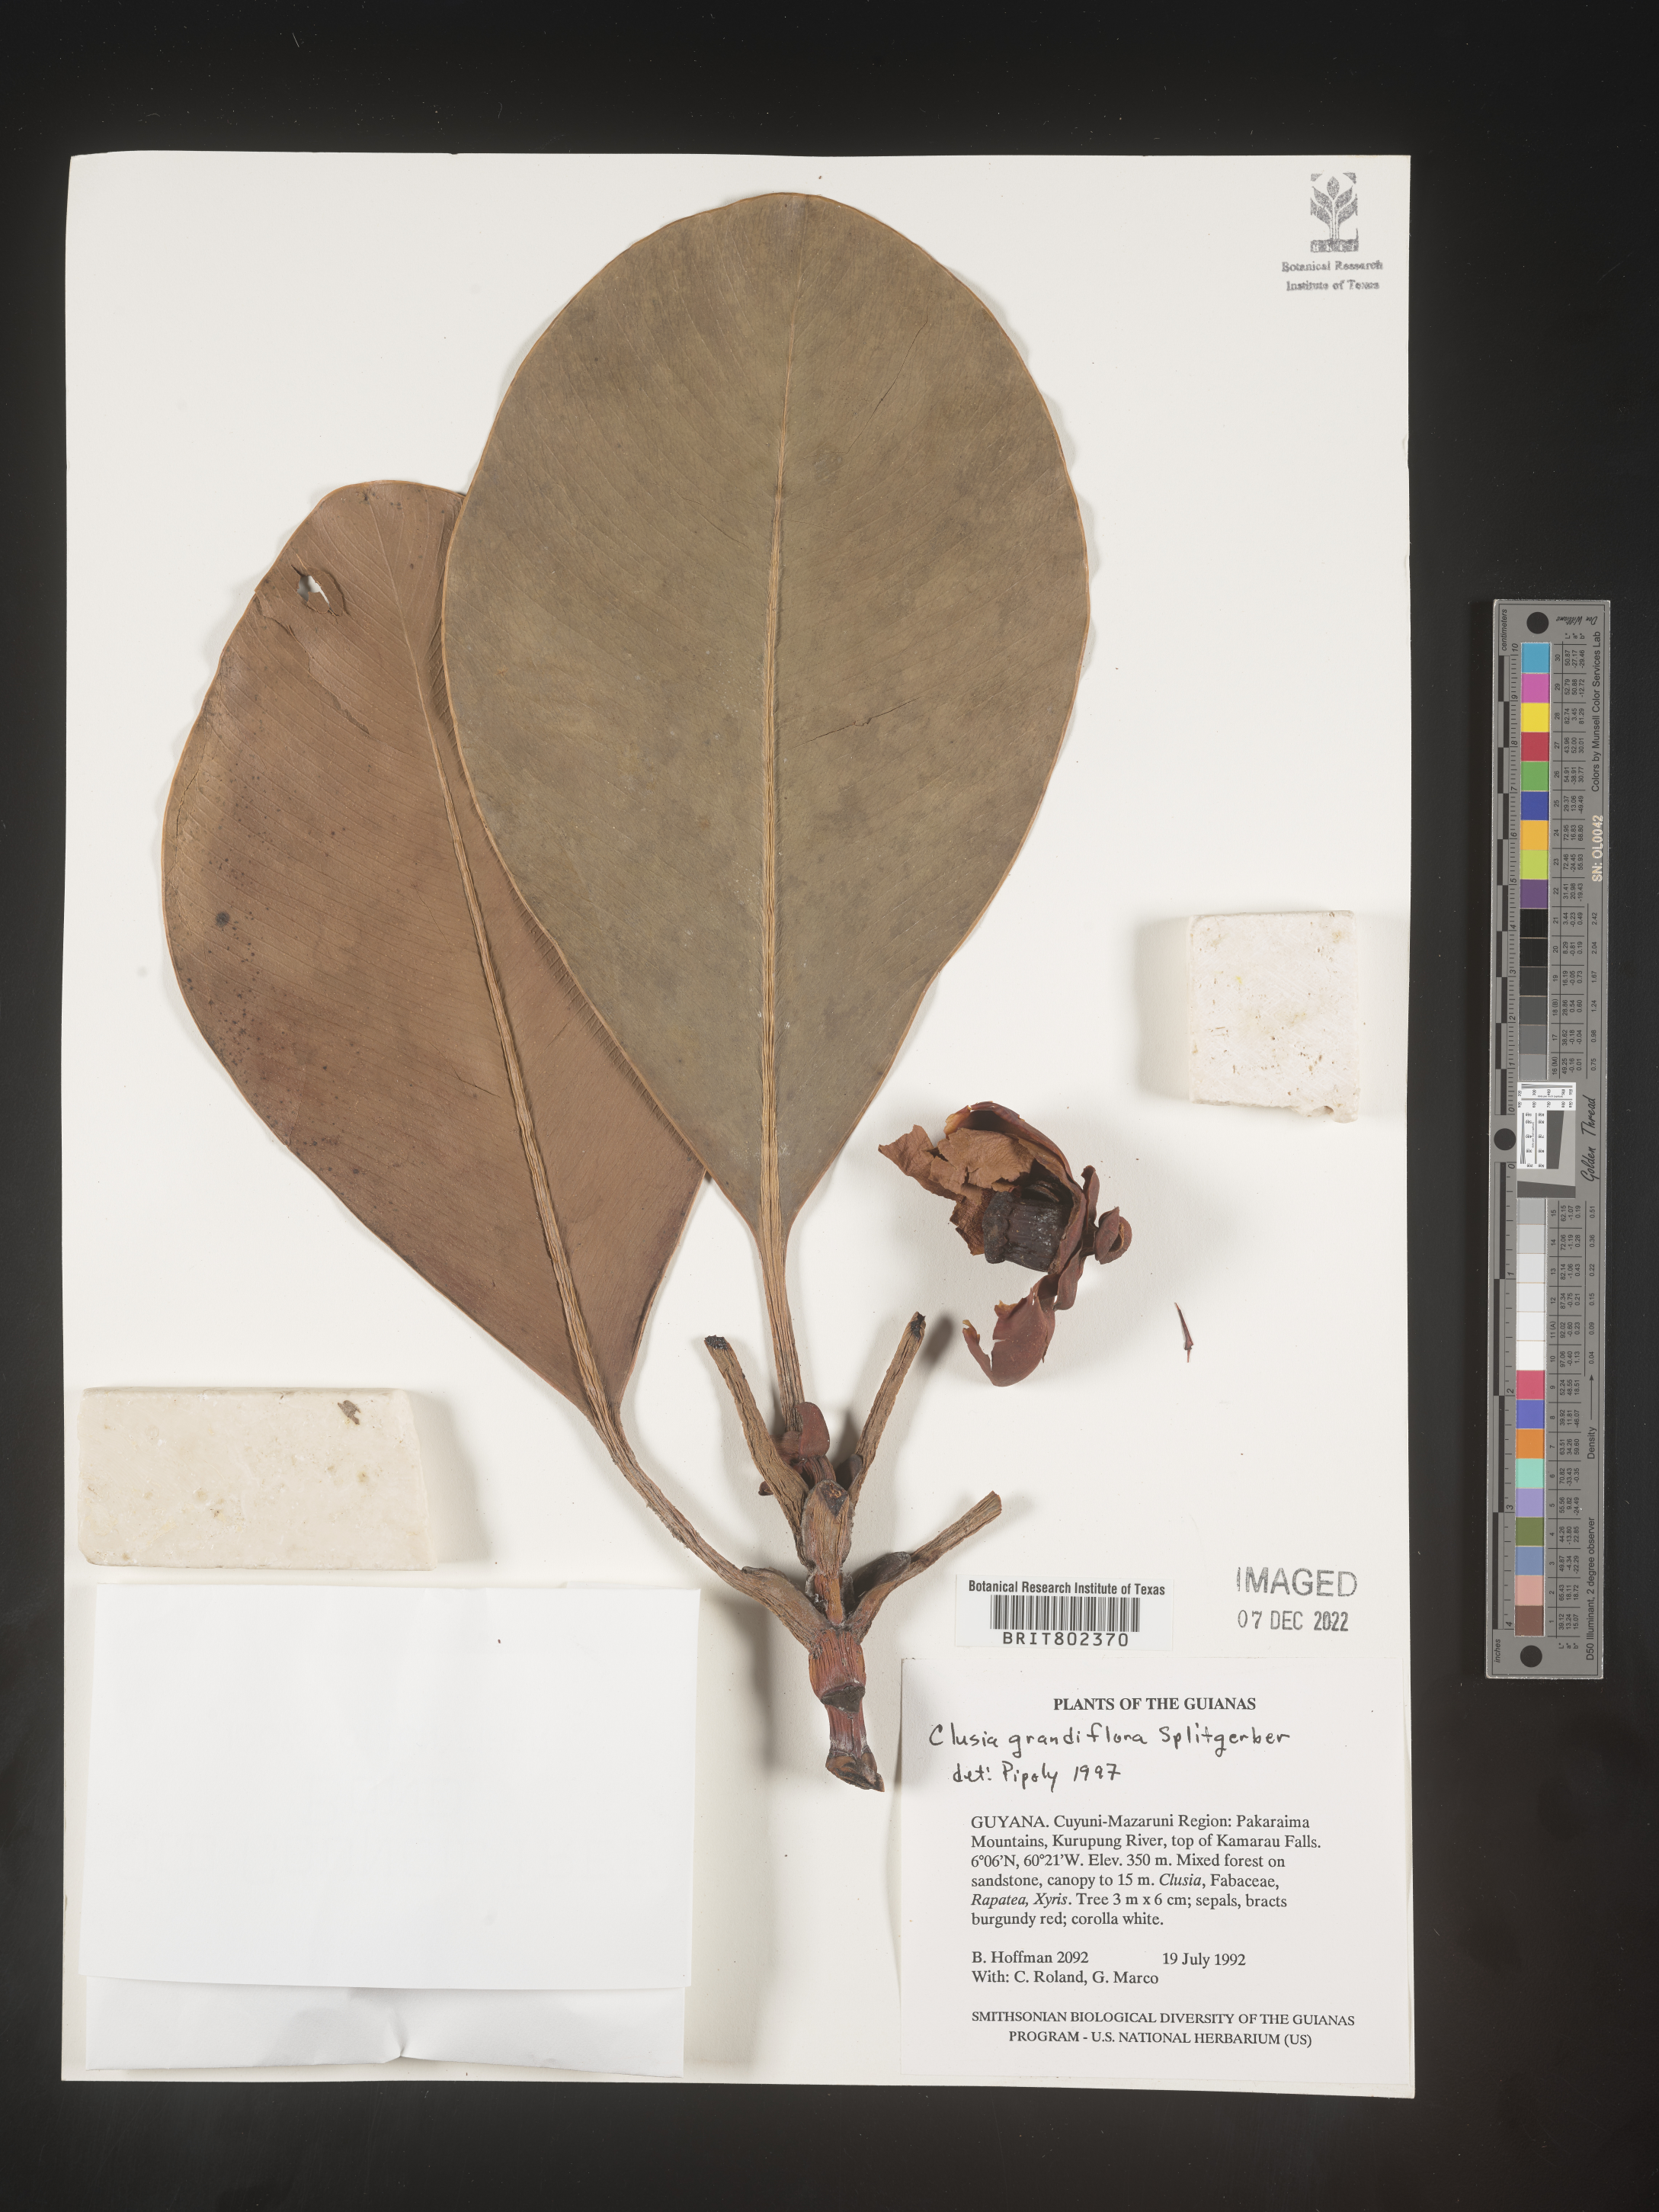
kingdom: Plantae
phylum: Tracheophyta
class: Magnoliopsida
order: Malpighiales
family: Clusiaceae
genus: Clusia
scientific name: Clusia grandiflora
